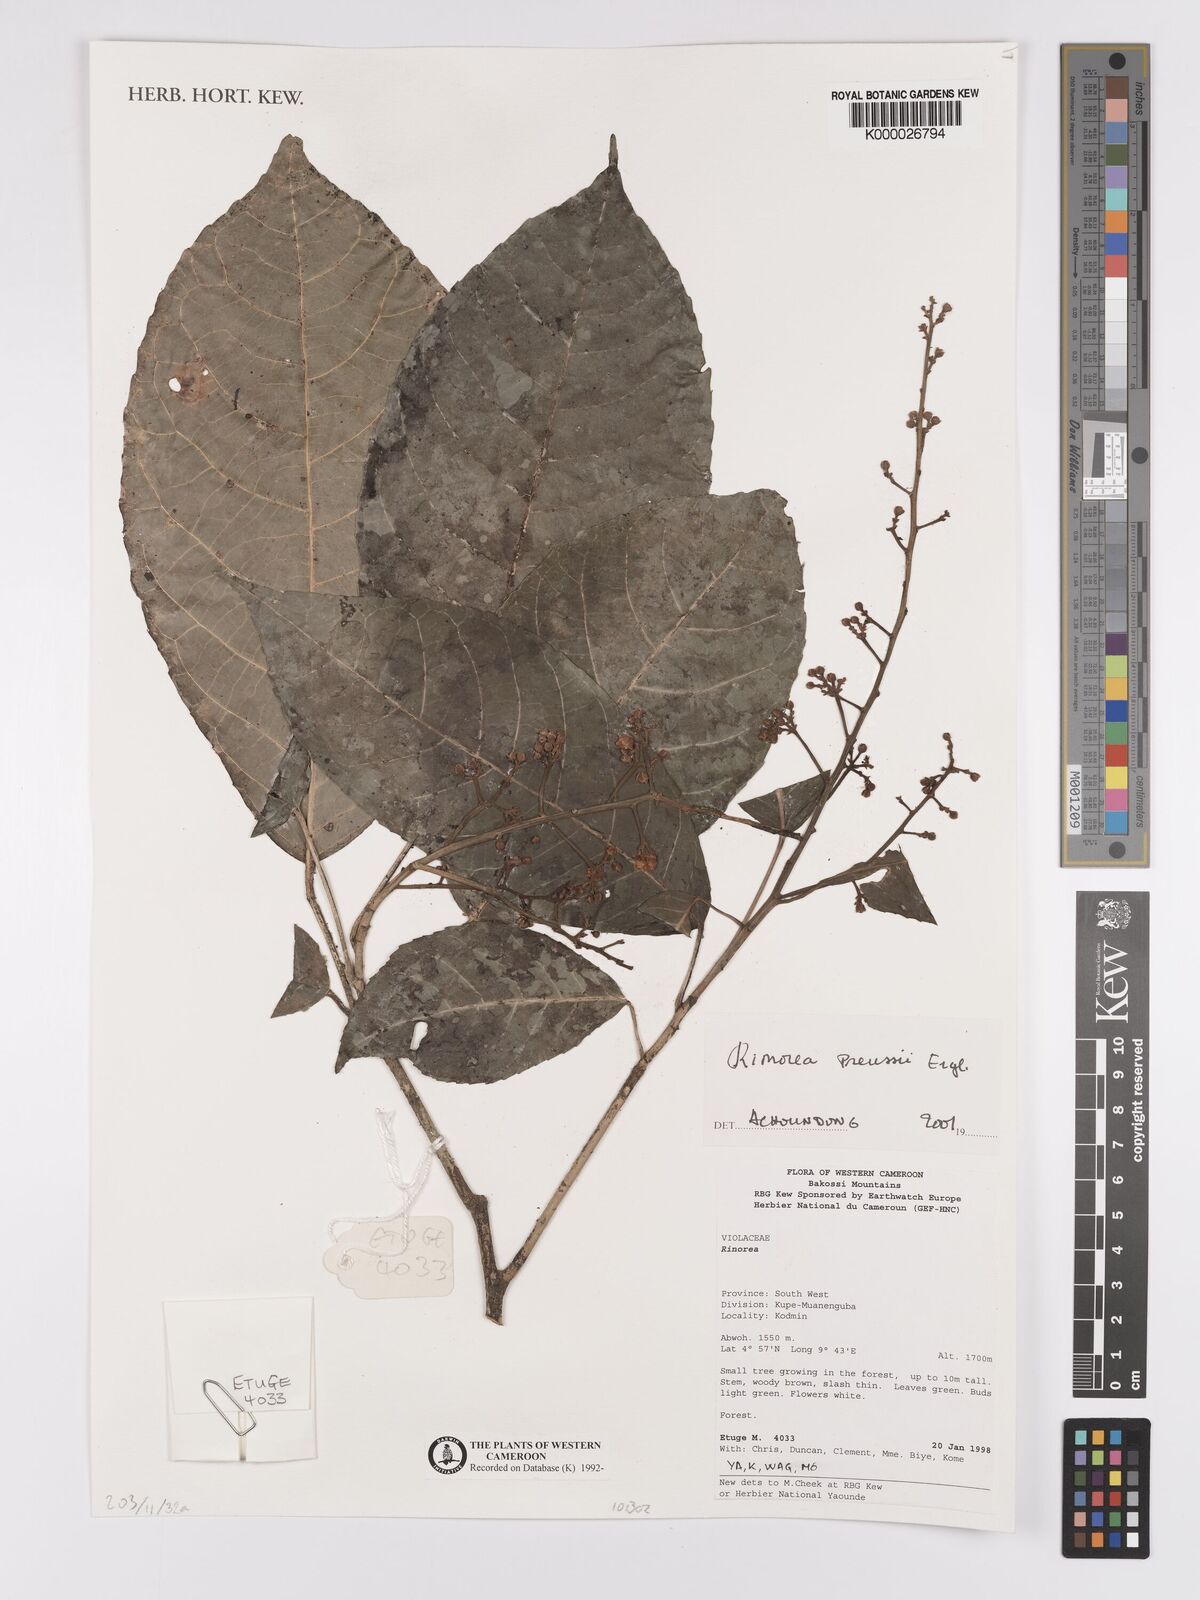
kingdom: Plantae
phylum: Tracheophyta
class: Magnoliopsida
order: Malpighiales
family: Violaceae
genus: Rinorea
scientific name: Rinorea preussii
